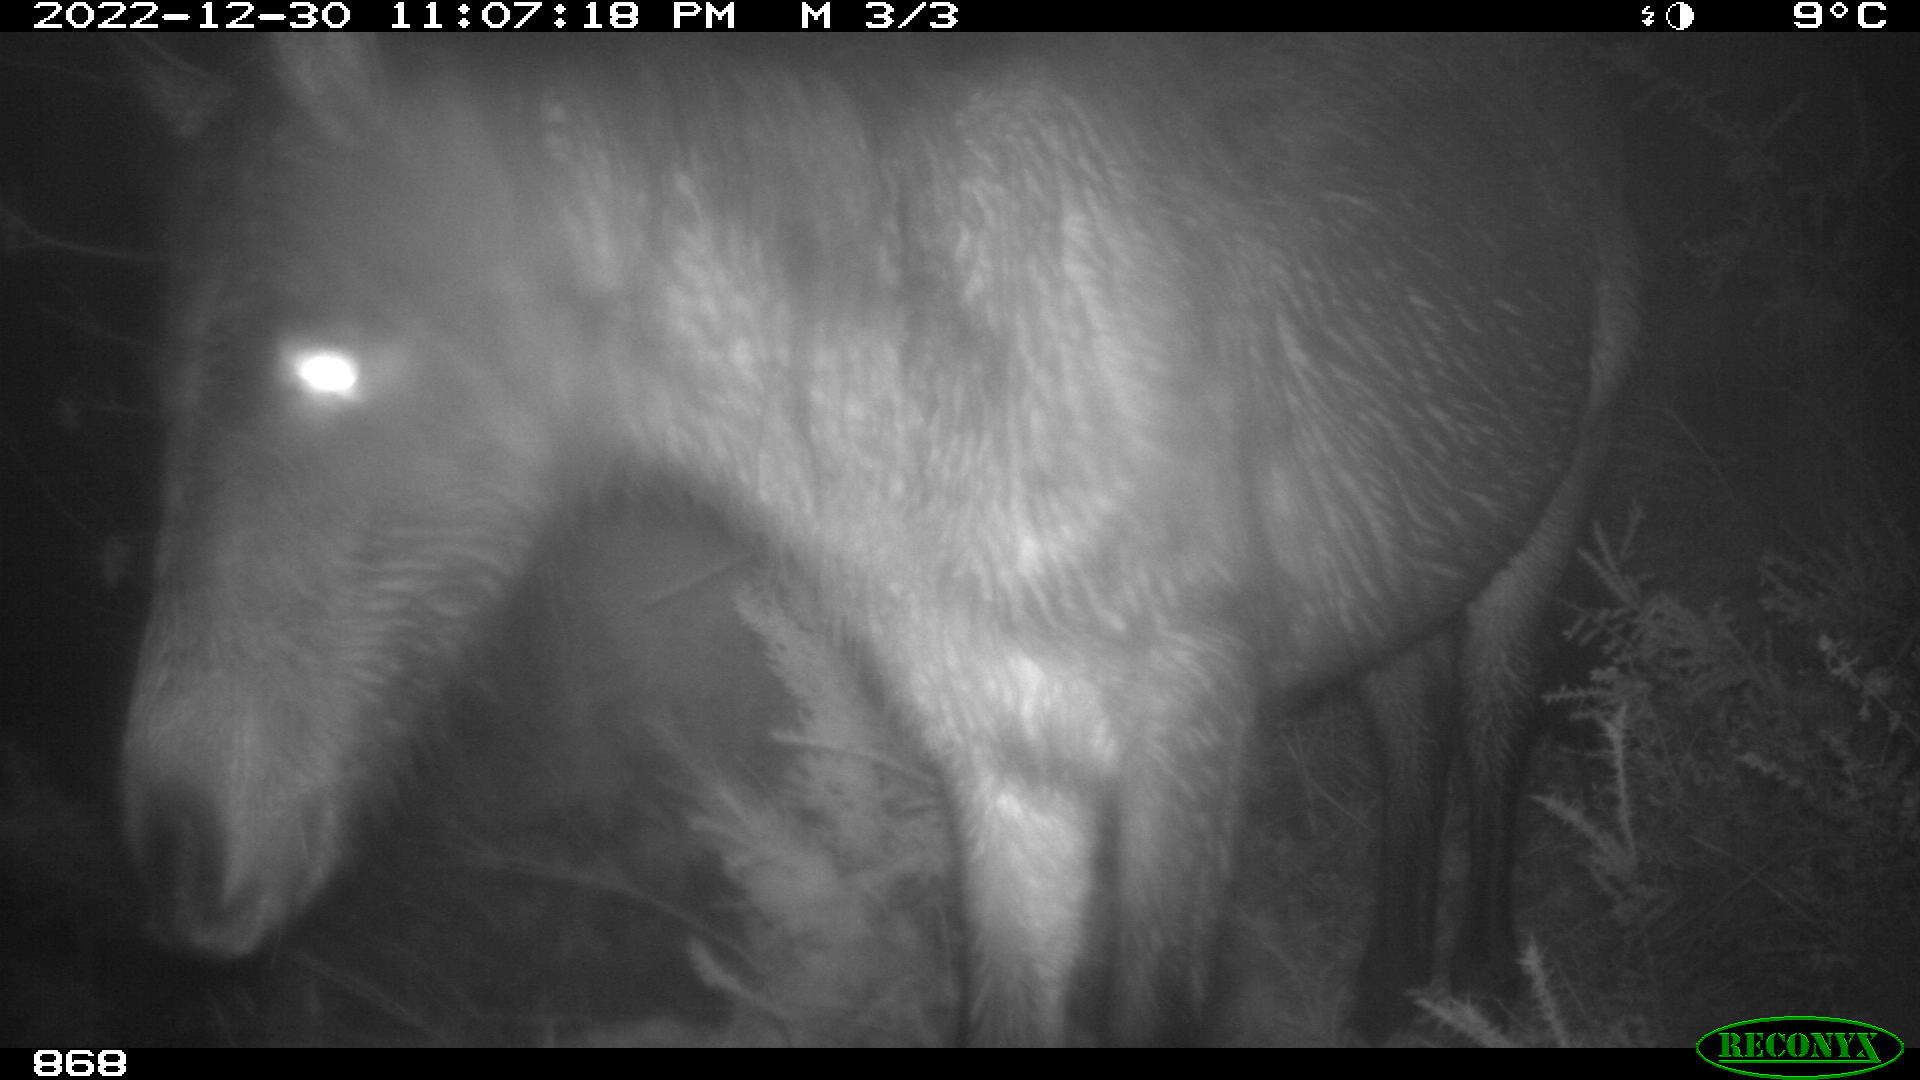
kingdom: Animalia
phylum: Chordata
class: Mammalia
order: Perissodactyla
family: Equidae
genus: Equus
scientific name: Equus caballus
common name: Horse
